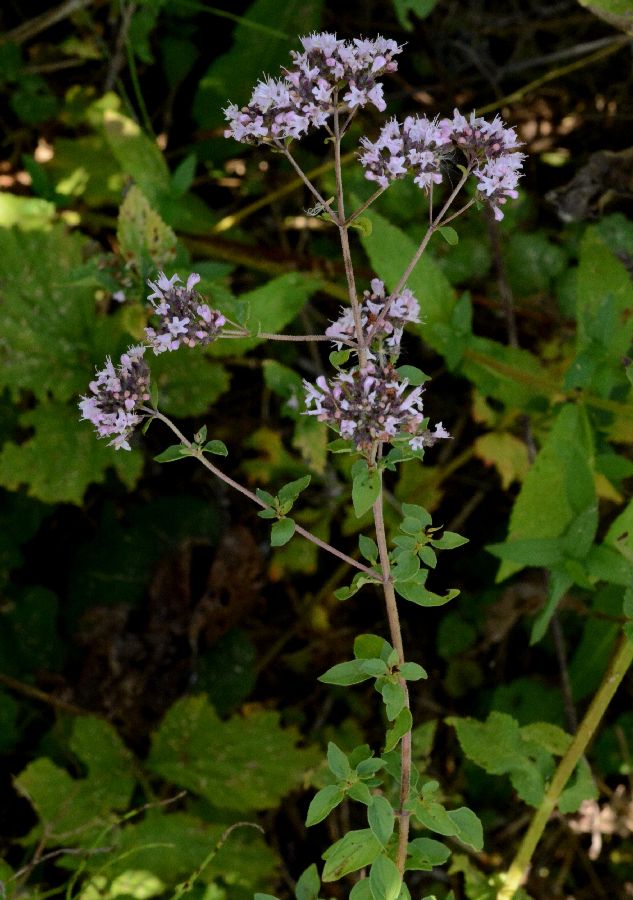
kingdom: Plantae
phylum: Tracheophyta
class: Magnoliopsida
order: Lamiales
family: Lamiaceae
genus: Origanum
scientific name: Origanum vulgare
